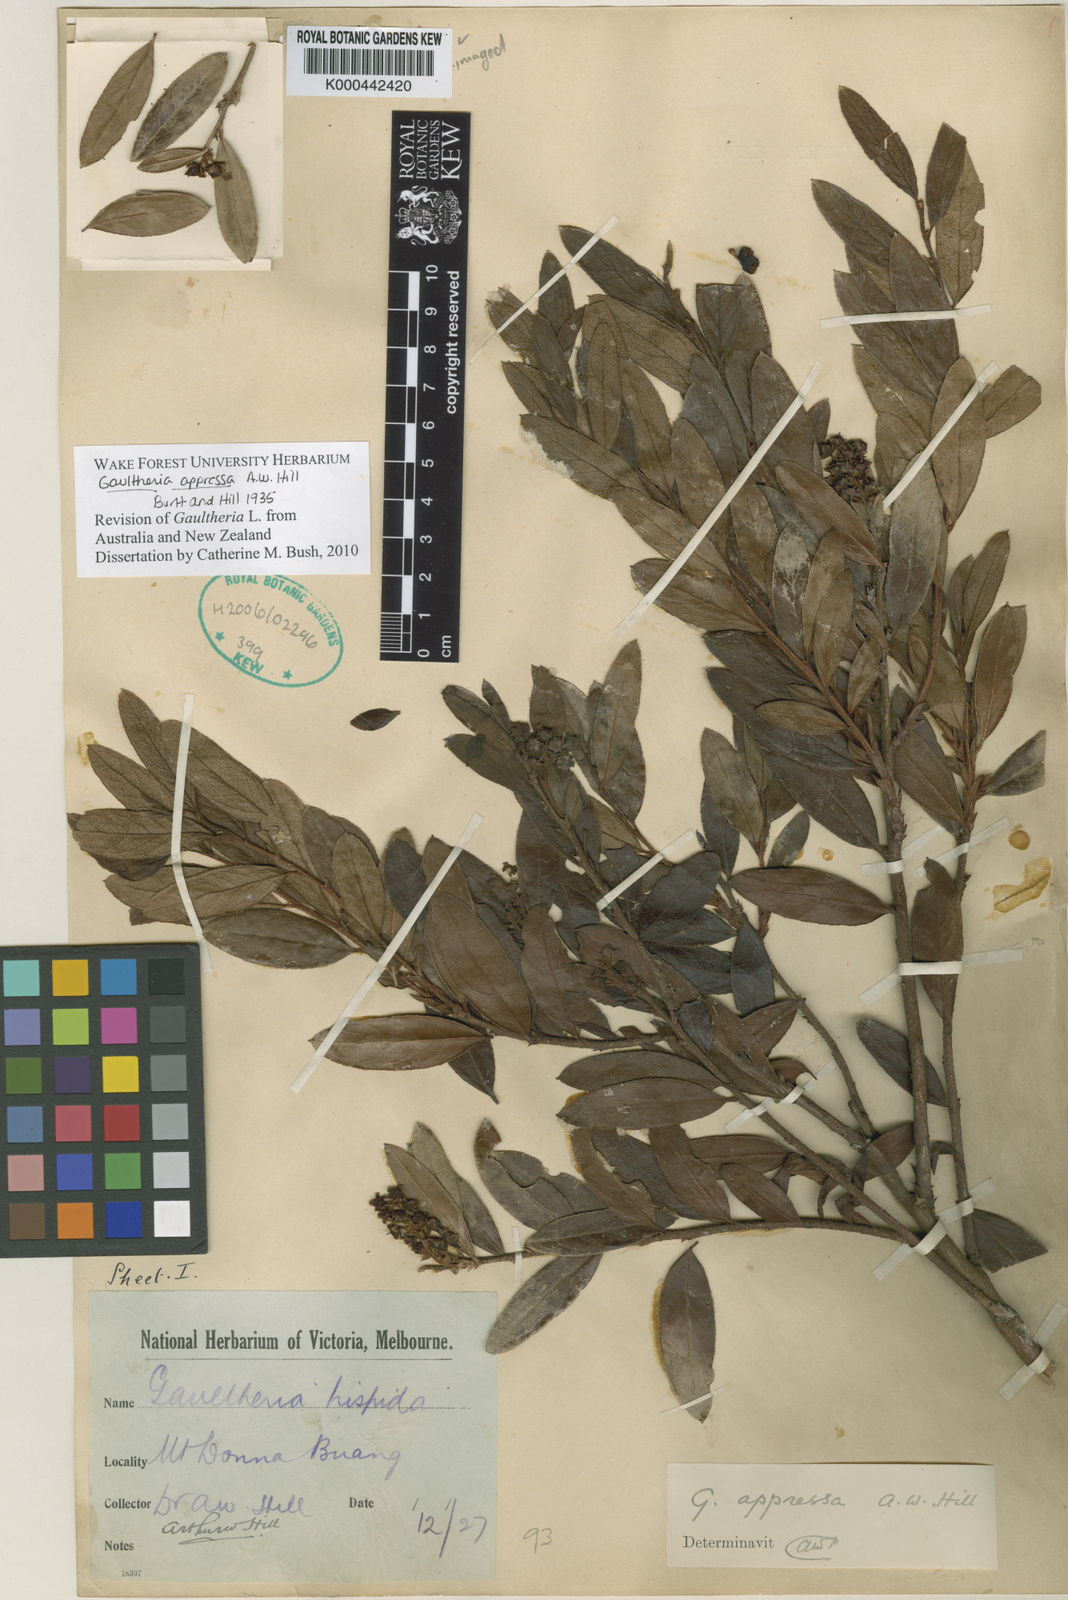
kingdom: Plantae
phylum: Tracheophyta
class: Magnoliopsida
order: Ericales
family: Ericaceae
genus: Gaultheria
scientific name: Gaultheria appressa
